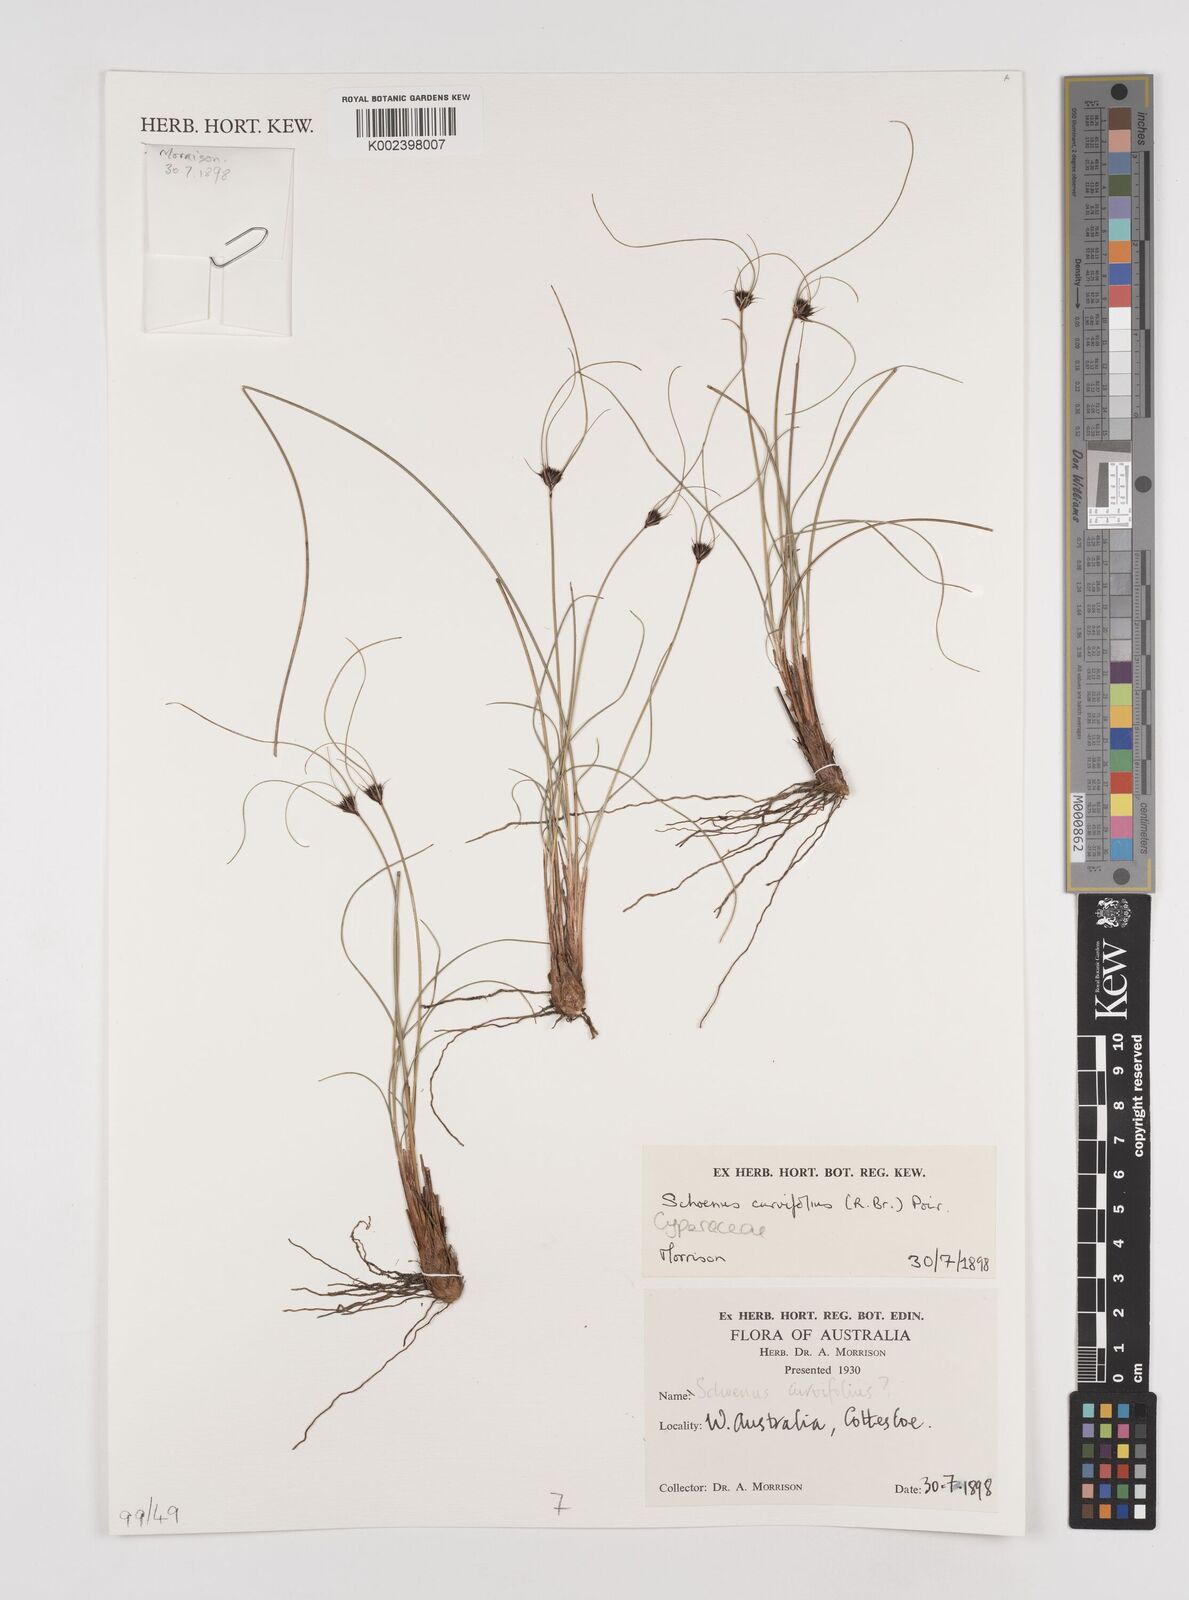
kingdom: Plantae
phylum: Tracheophyta
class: Liliopsida
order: Poales
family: Cyperaceae
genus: Schoenus
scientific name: Schoenus curvifolius
